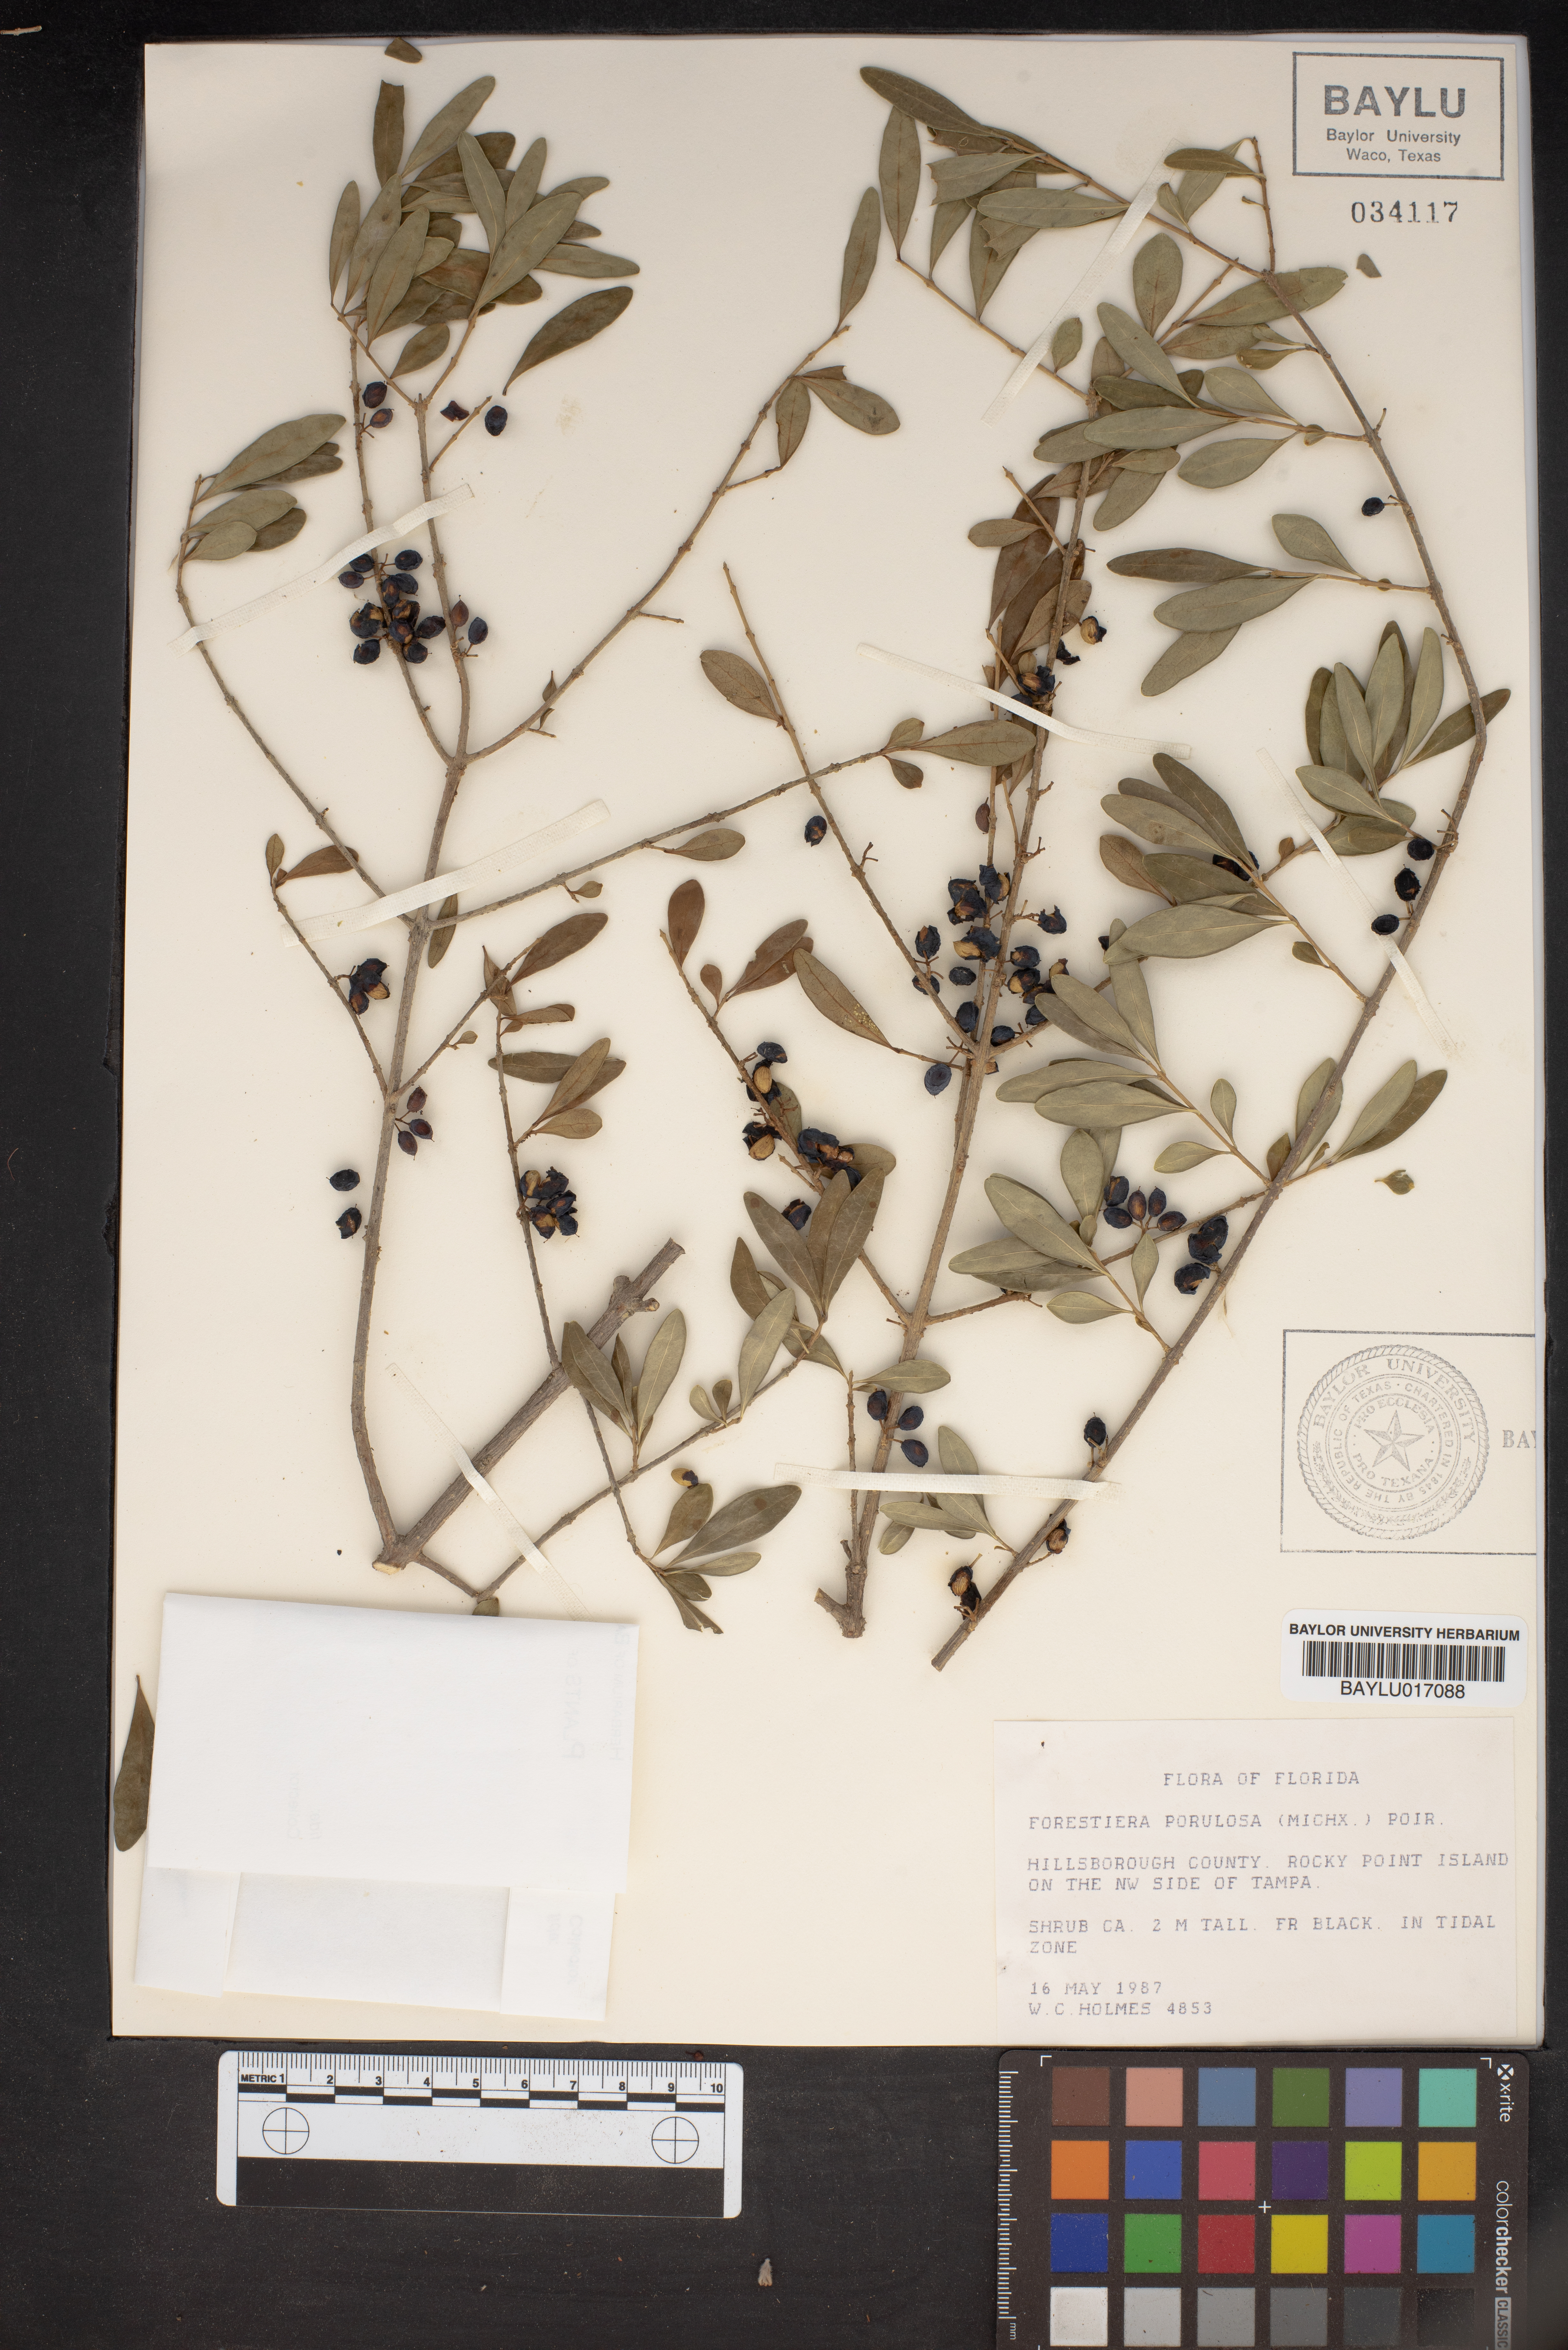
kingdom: Plantae
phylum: Tracheophyta
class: Magnoliopsida
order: Lamiales
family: Oleaceae
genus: Forestiera
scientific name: Forestiera segregata
